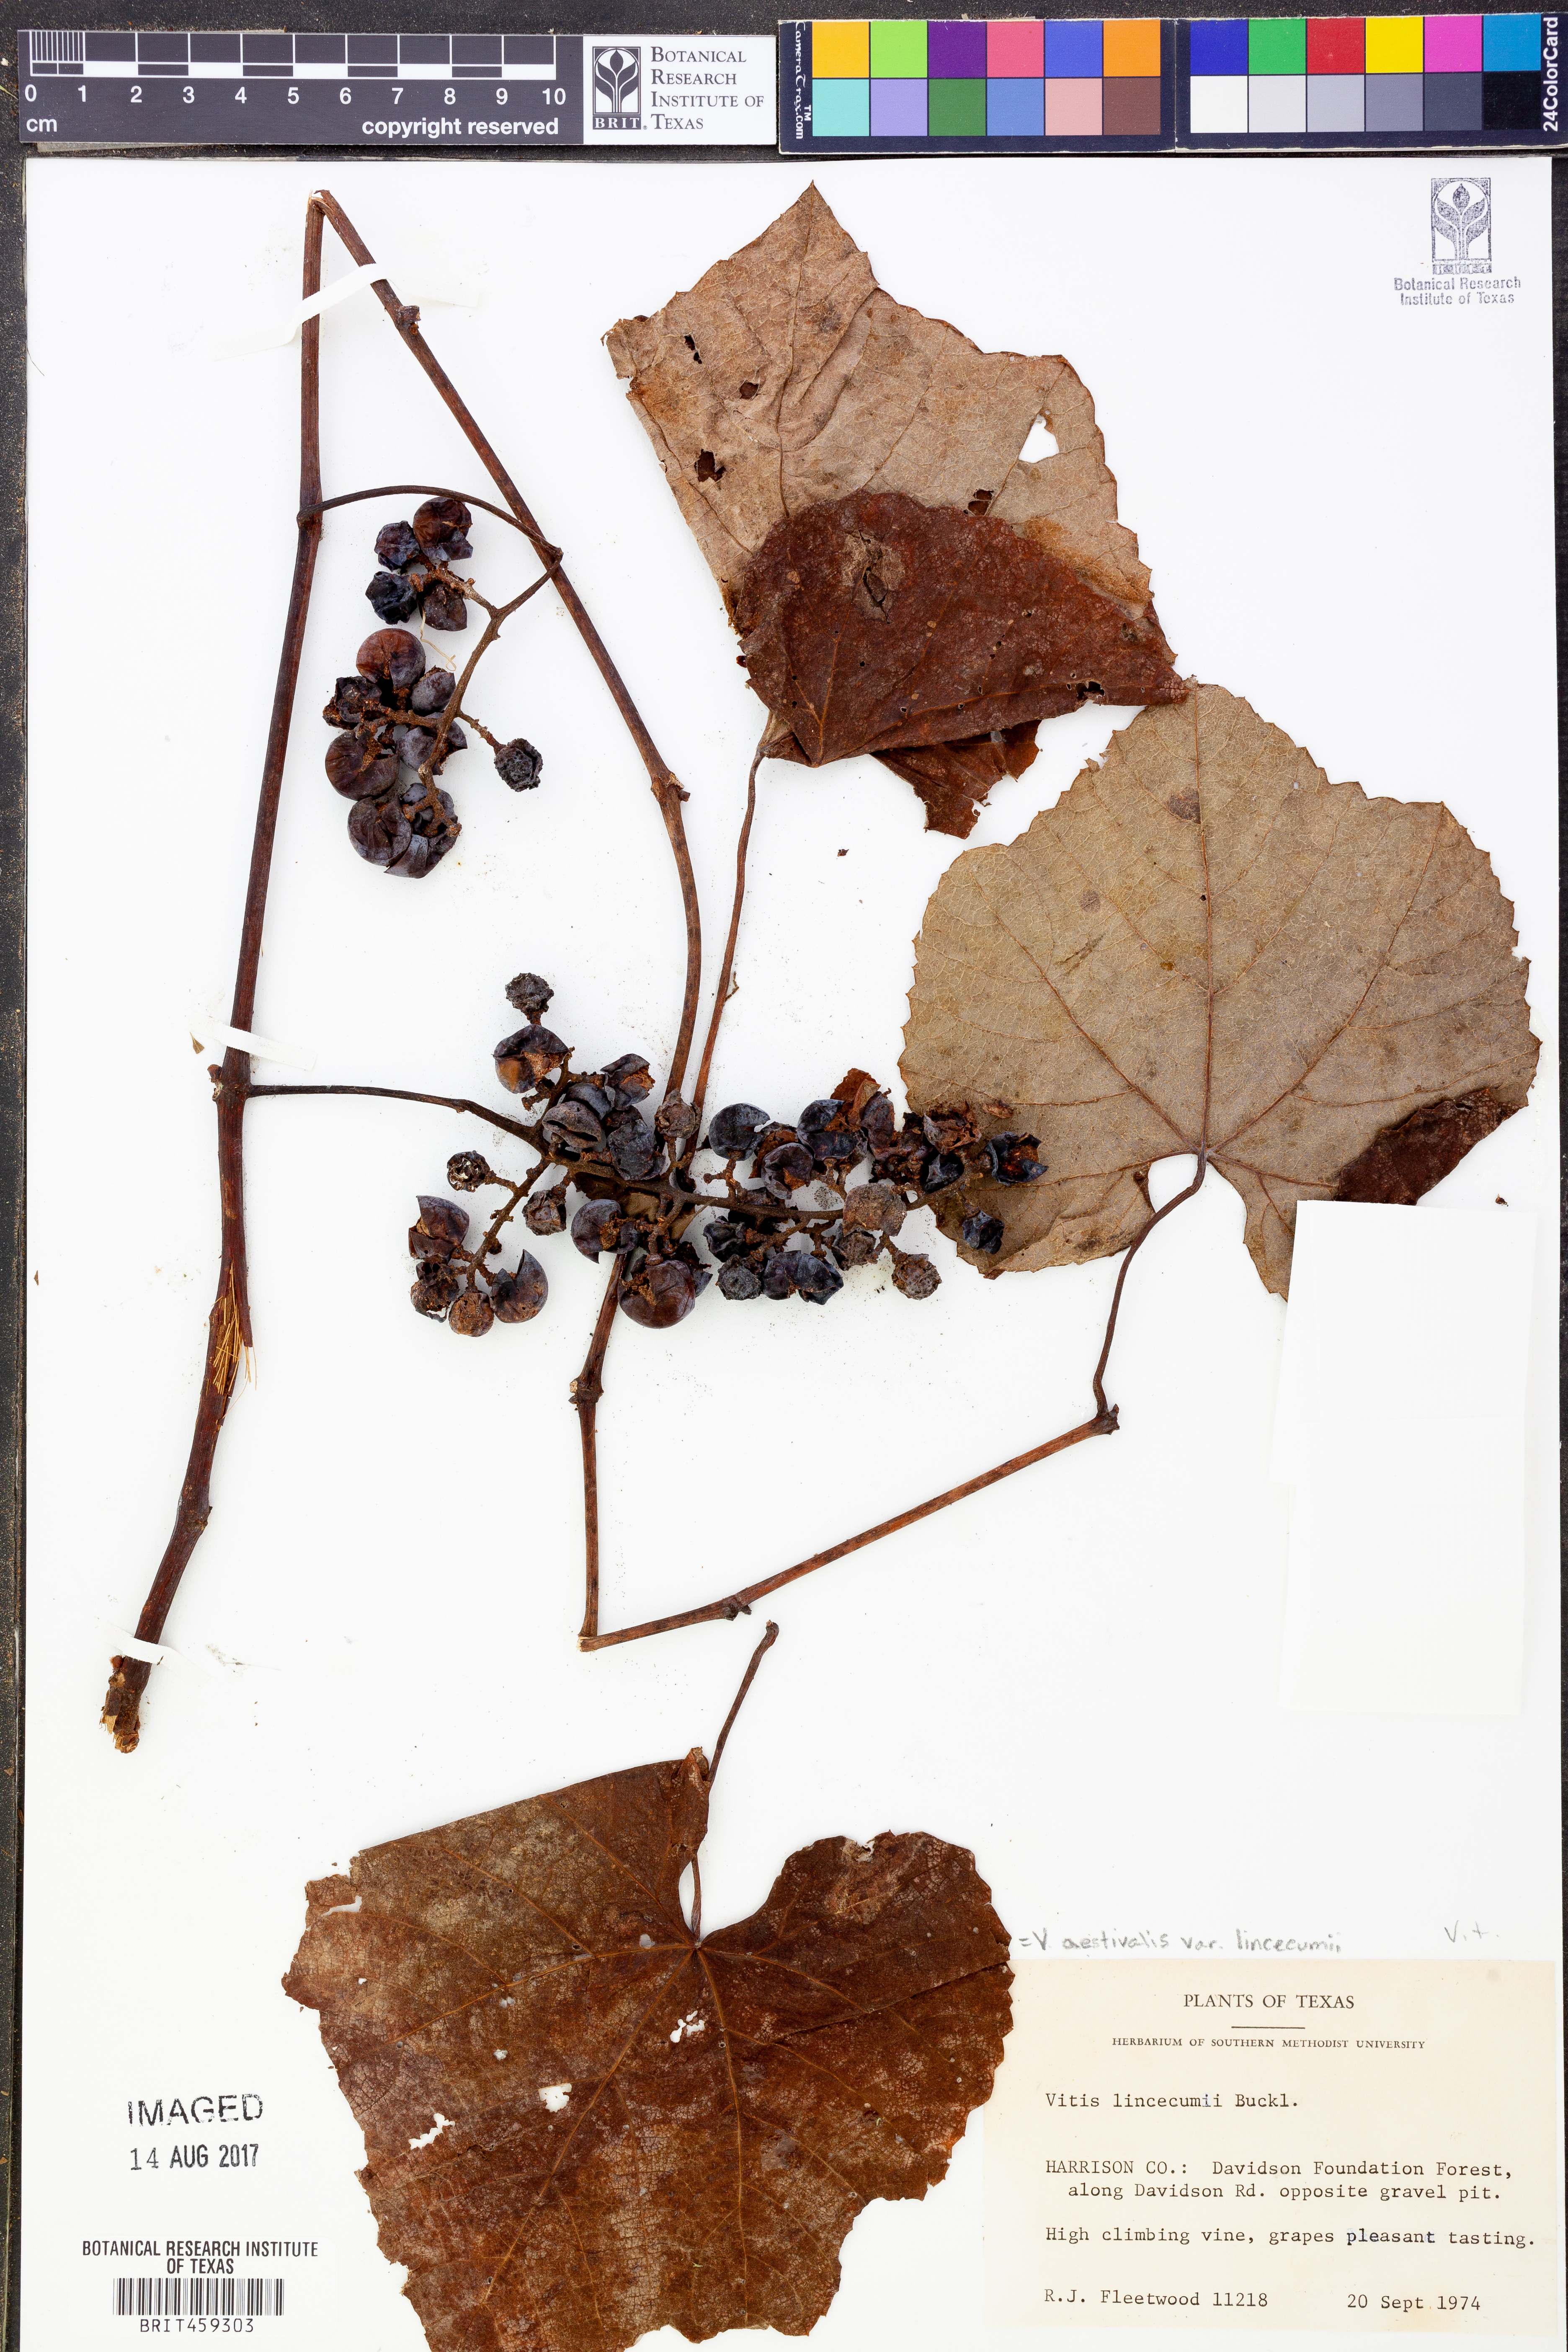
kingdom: Plantae
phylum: Tracheophyta
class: Magnoliopsida
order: Vitales
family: Vitaceae
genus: Vitis
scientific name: Vitis aestivalis
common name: Pigeon grape
